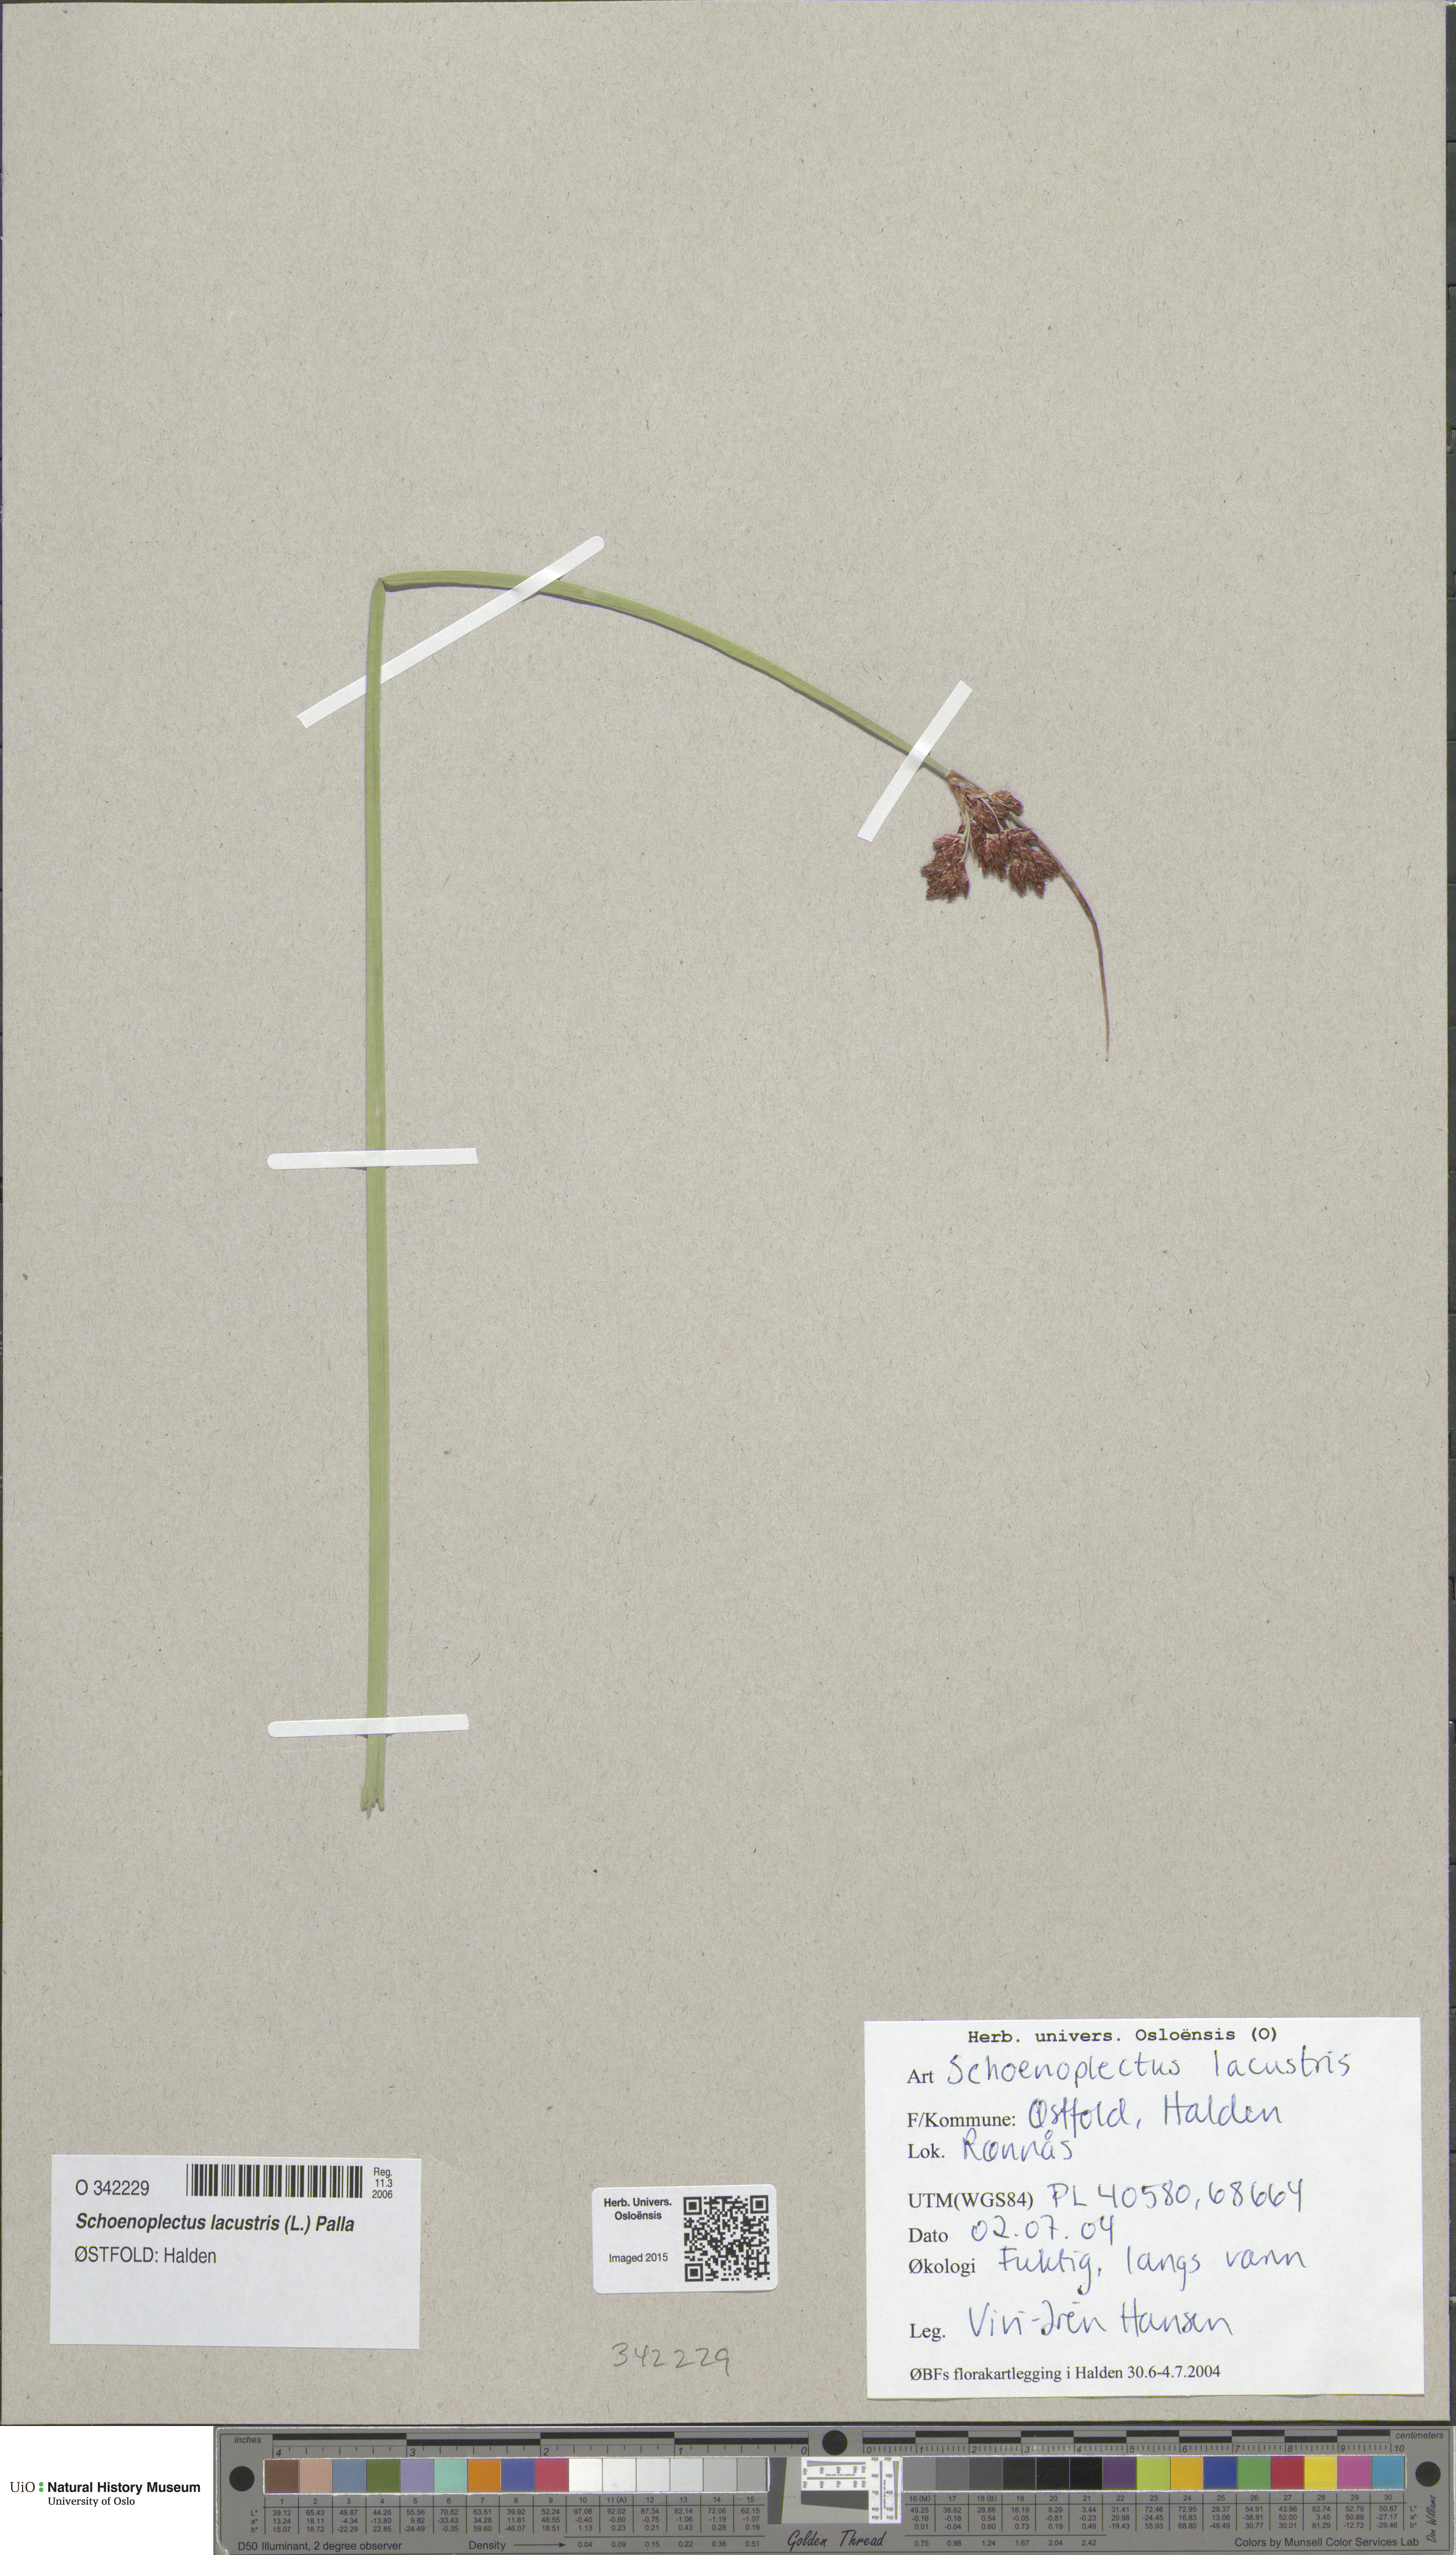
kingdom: Plantae
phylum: Tracheophyta
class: Liliopsida
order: Poales
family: Cyperaceae
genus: Schoenoplectus
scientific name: Schoenoplectus lacustris
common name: Common club-rush
